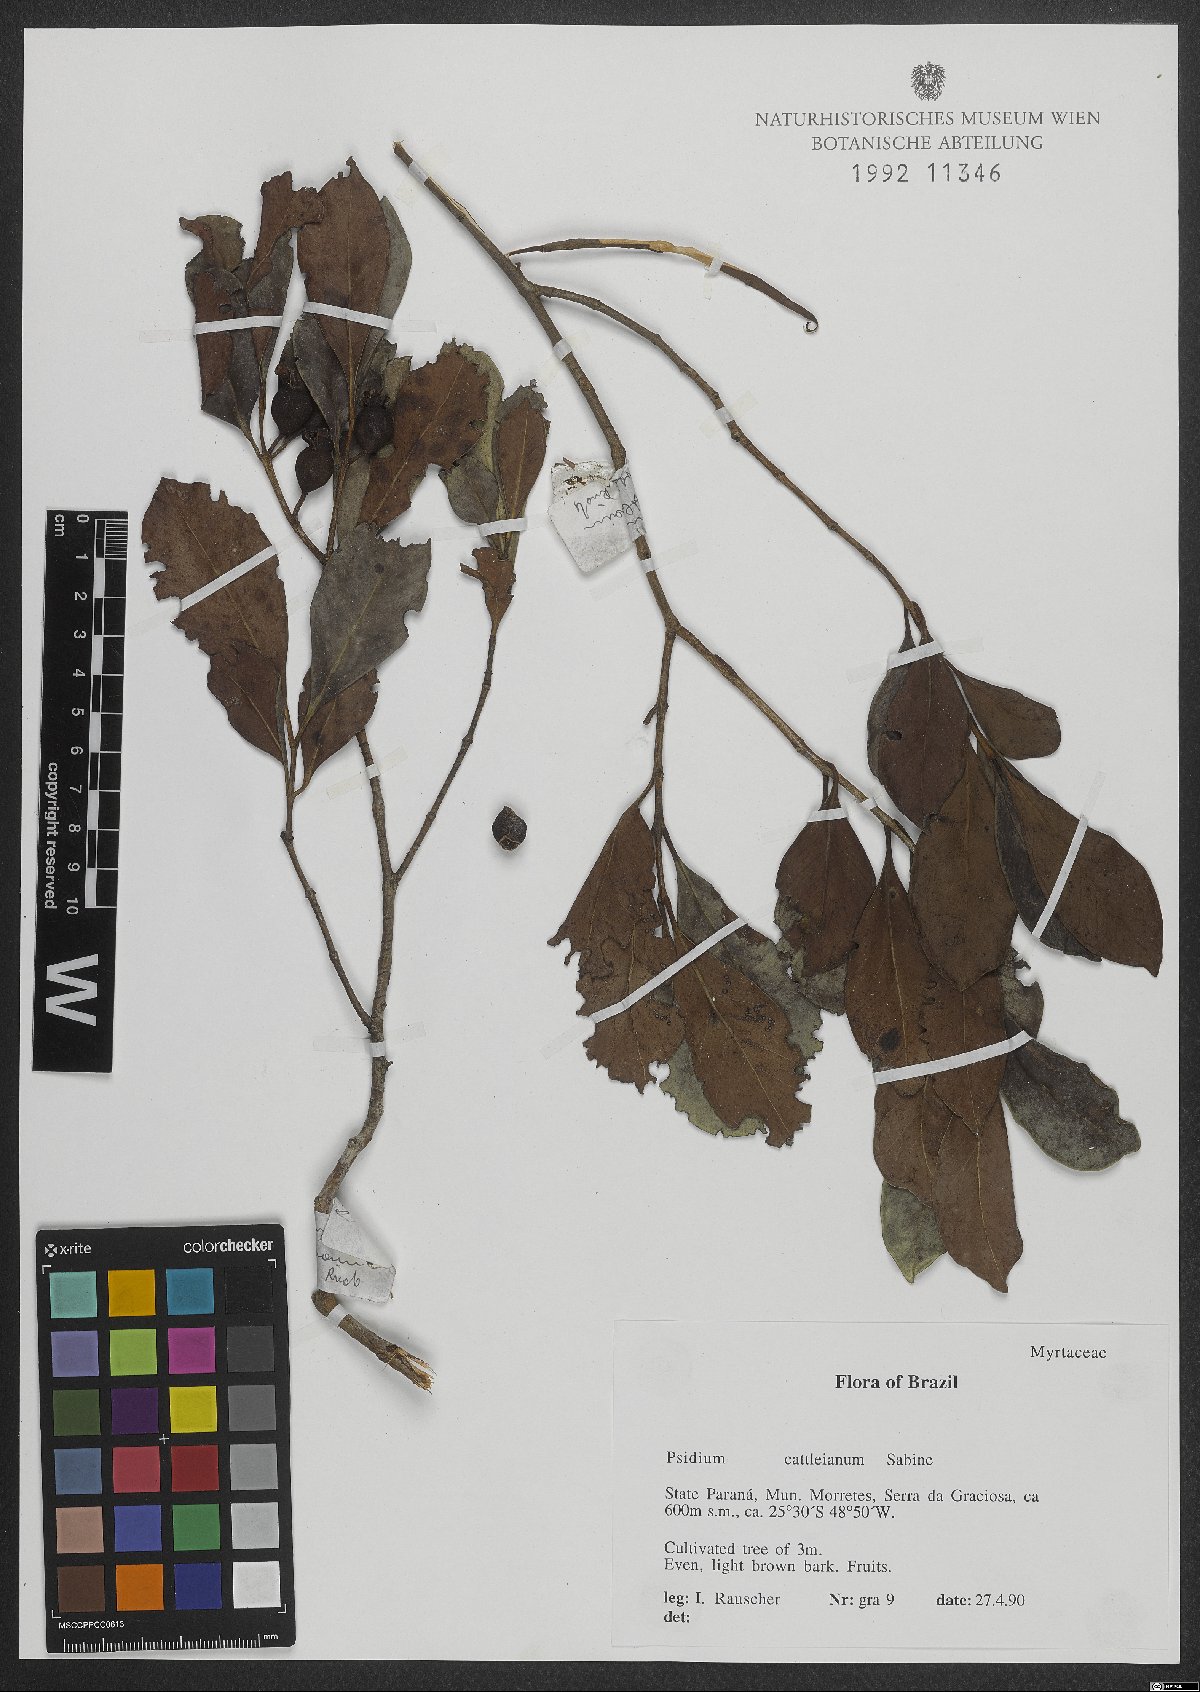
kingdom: Plantae
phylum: Tracheophyta
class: Magnoliopsida
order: Myrtales
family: Myrtaceae
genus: Psidium
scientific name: Psidium cattleianum
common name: Strawberry guava
